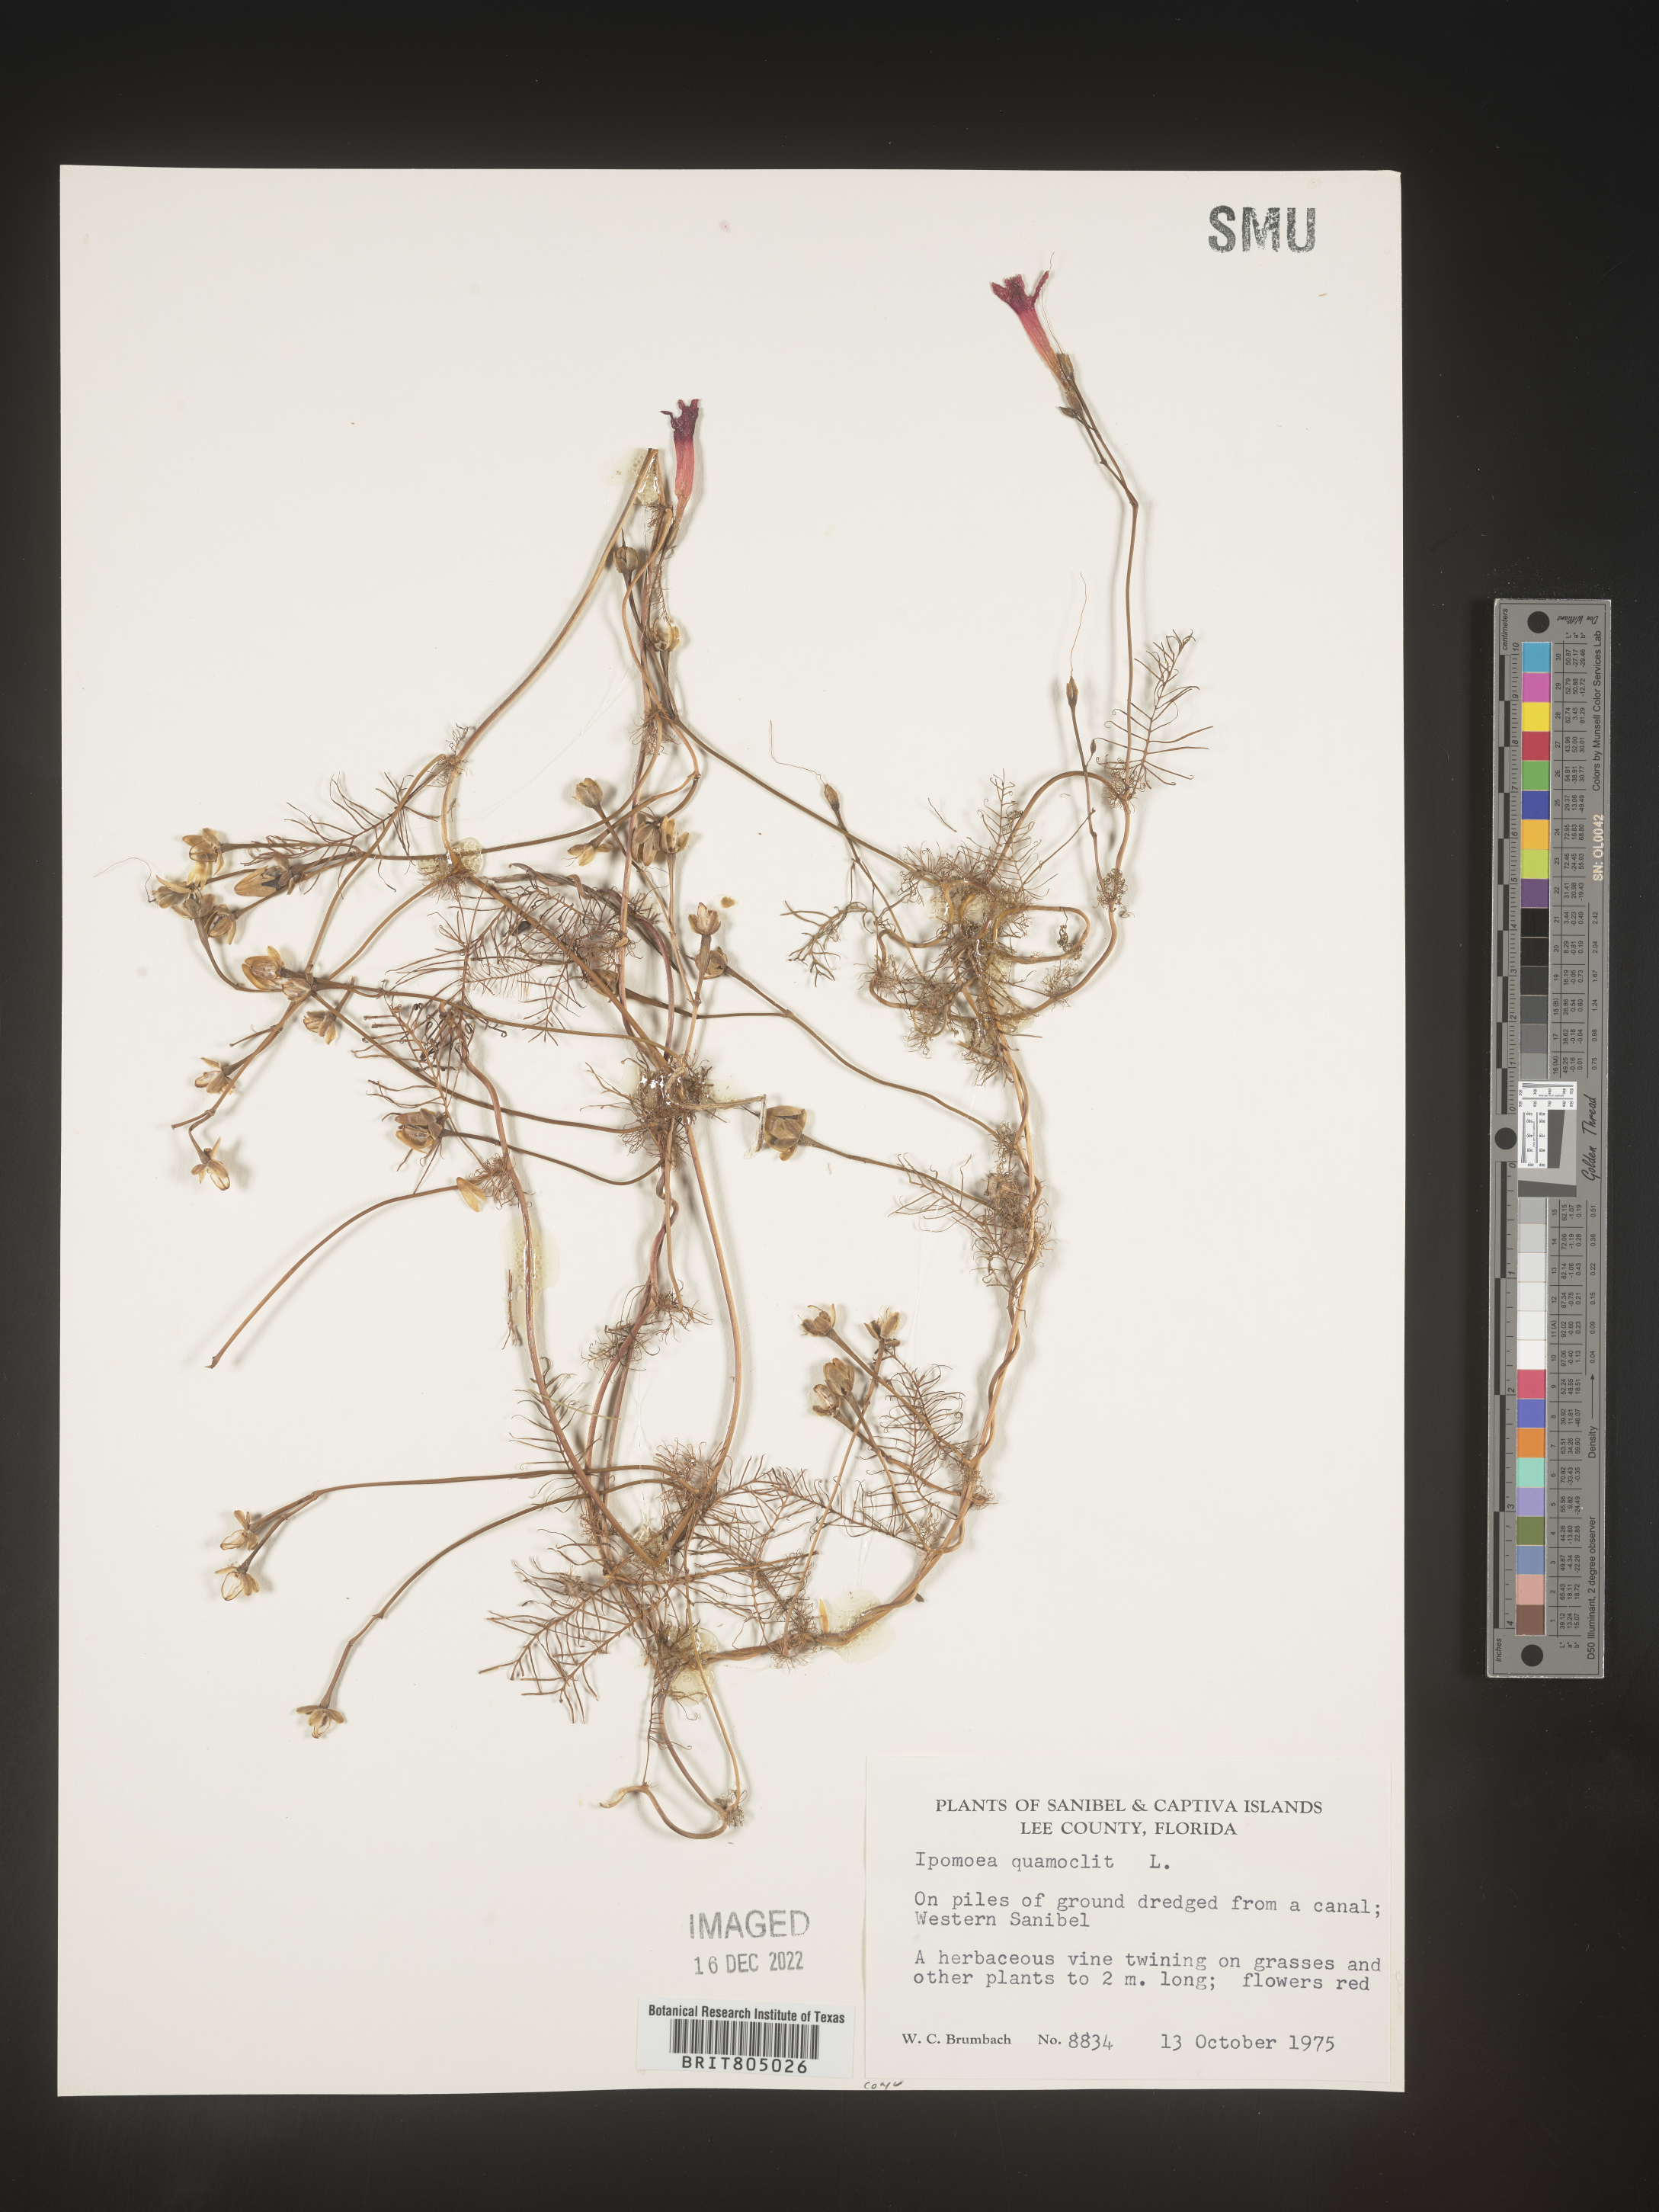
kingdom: Plantae
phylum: Tracheophyta
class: Magnoliopsida
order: Solanales
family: Convolvulaceae
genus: Ipomoea
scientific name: Ipomoea quamoclit
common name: Cypress vine
